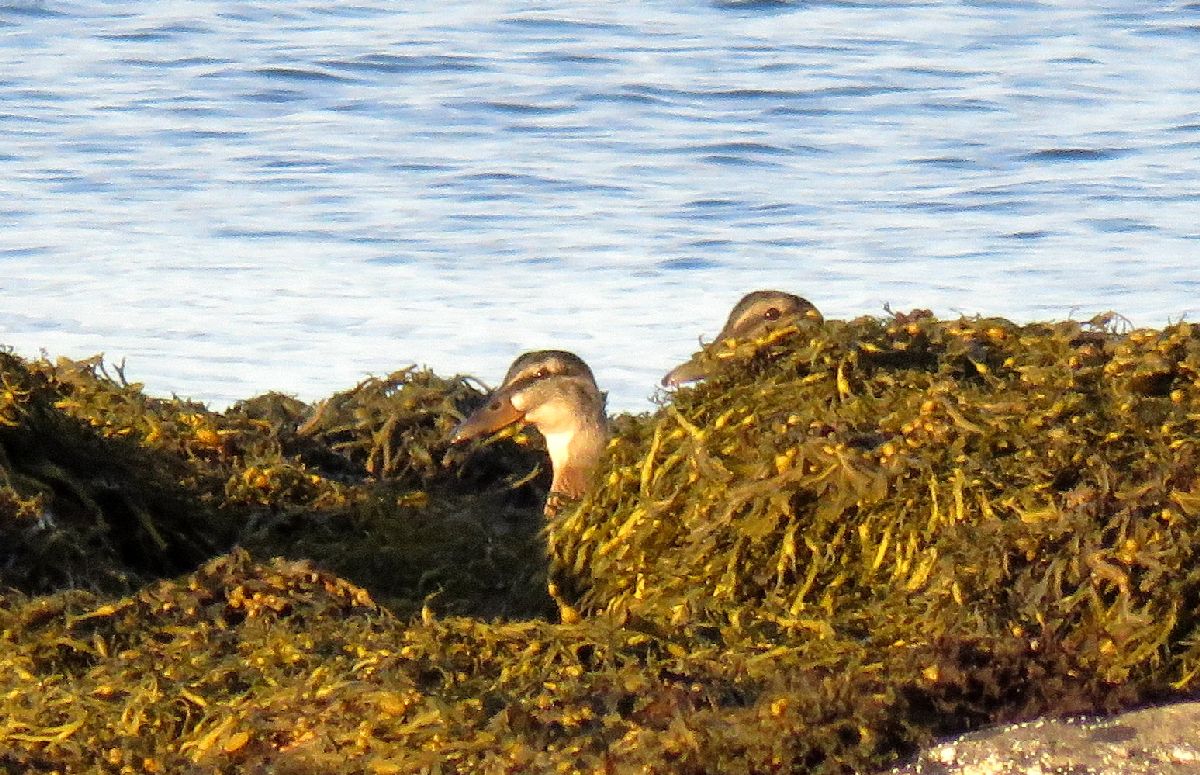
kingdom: Animalia
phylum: Chordata
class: Aves
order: Anseriformes
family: Anatidae
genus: Anas
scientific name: Anas platyrhynchos
